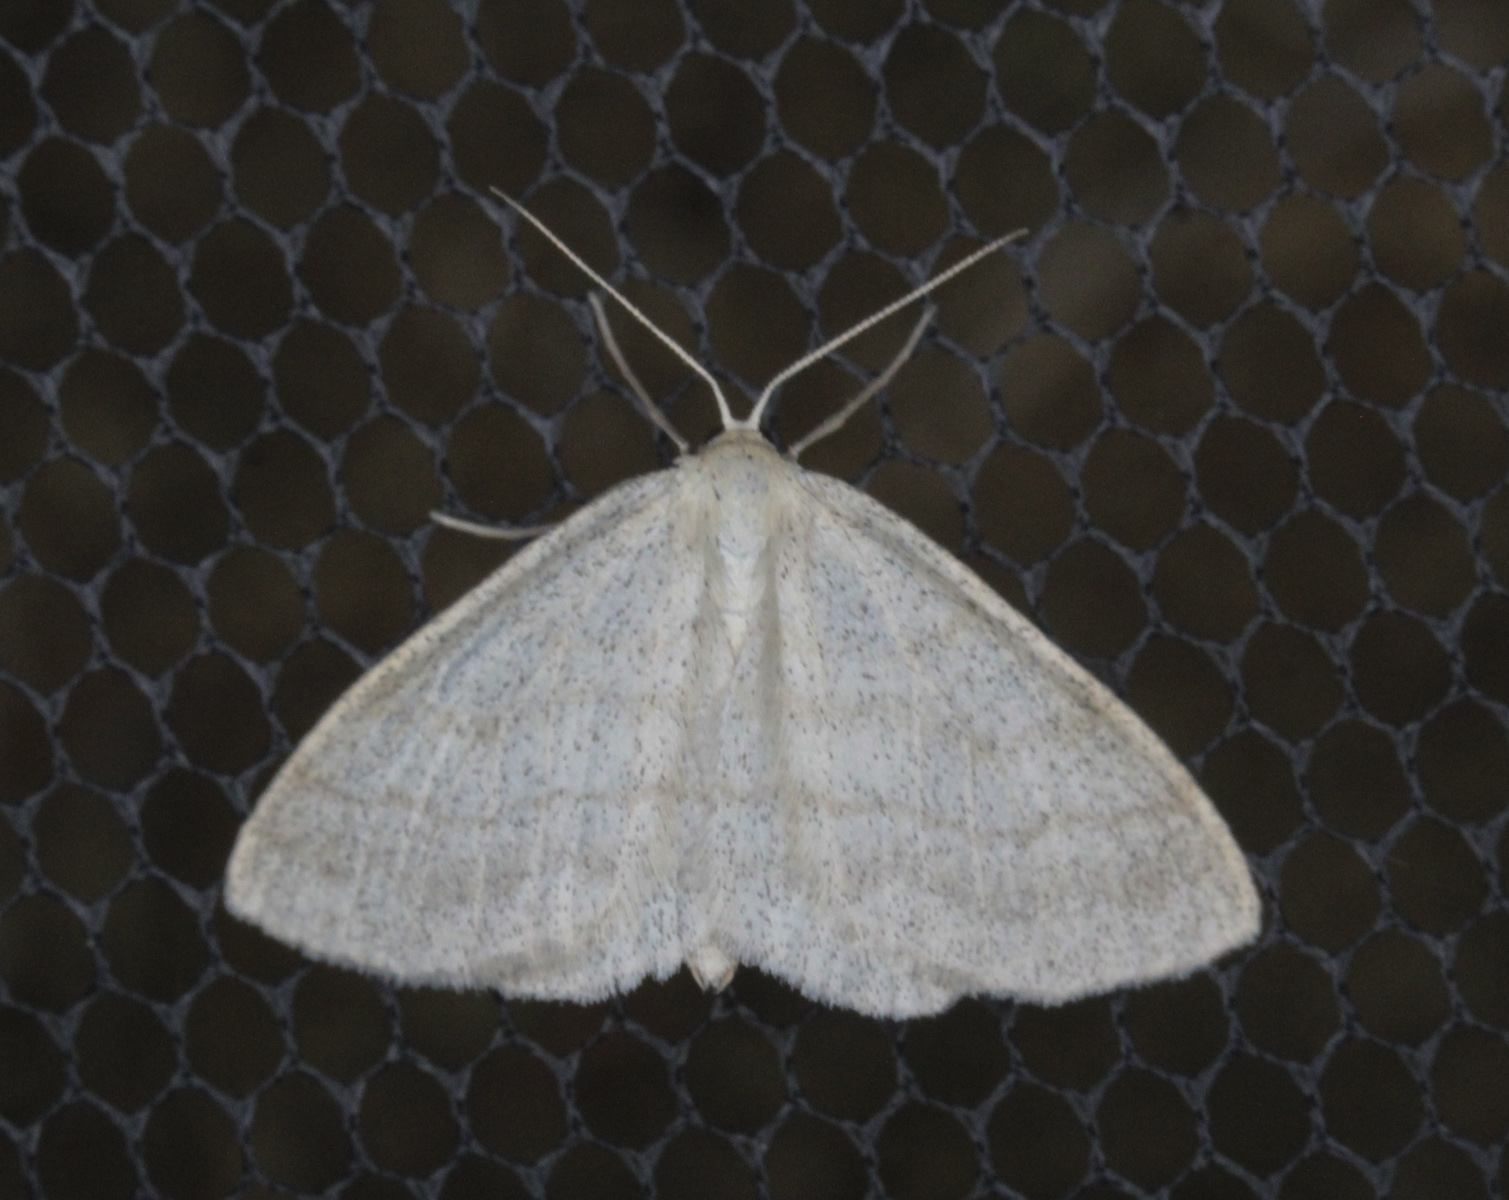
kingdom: Animalia
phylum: Arthropoda
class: Insecta
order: Lepidoptera
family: Geometridae
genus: Cabera
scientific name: Cabera exanthemata
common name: Common wave
